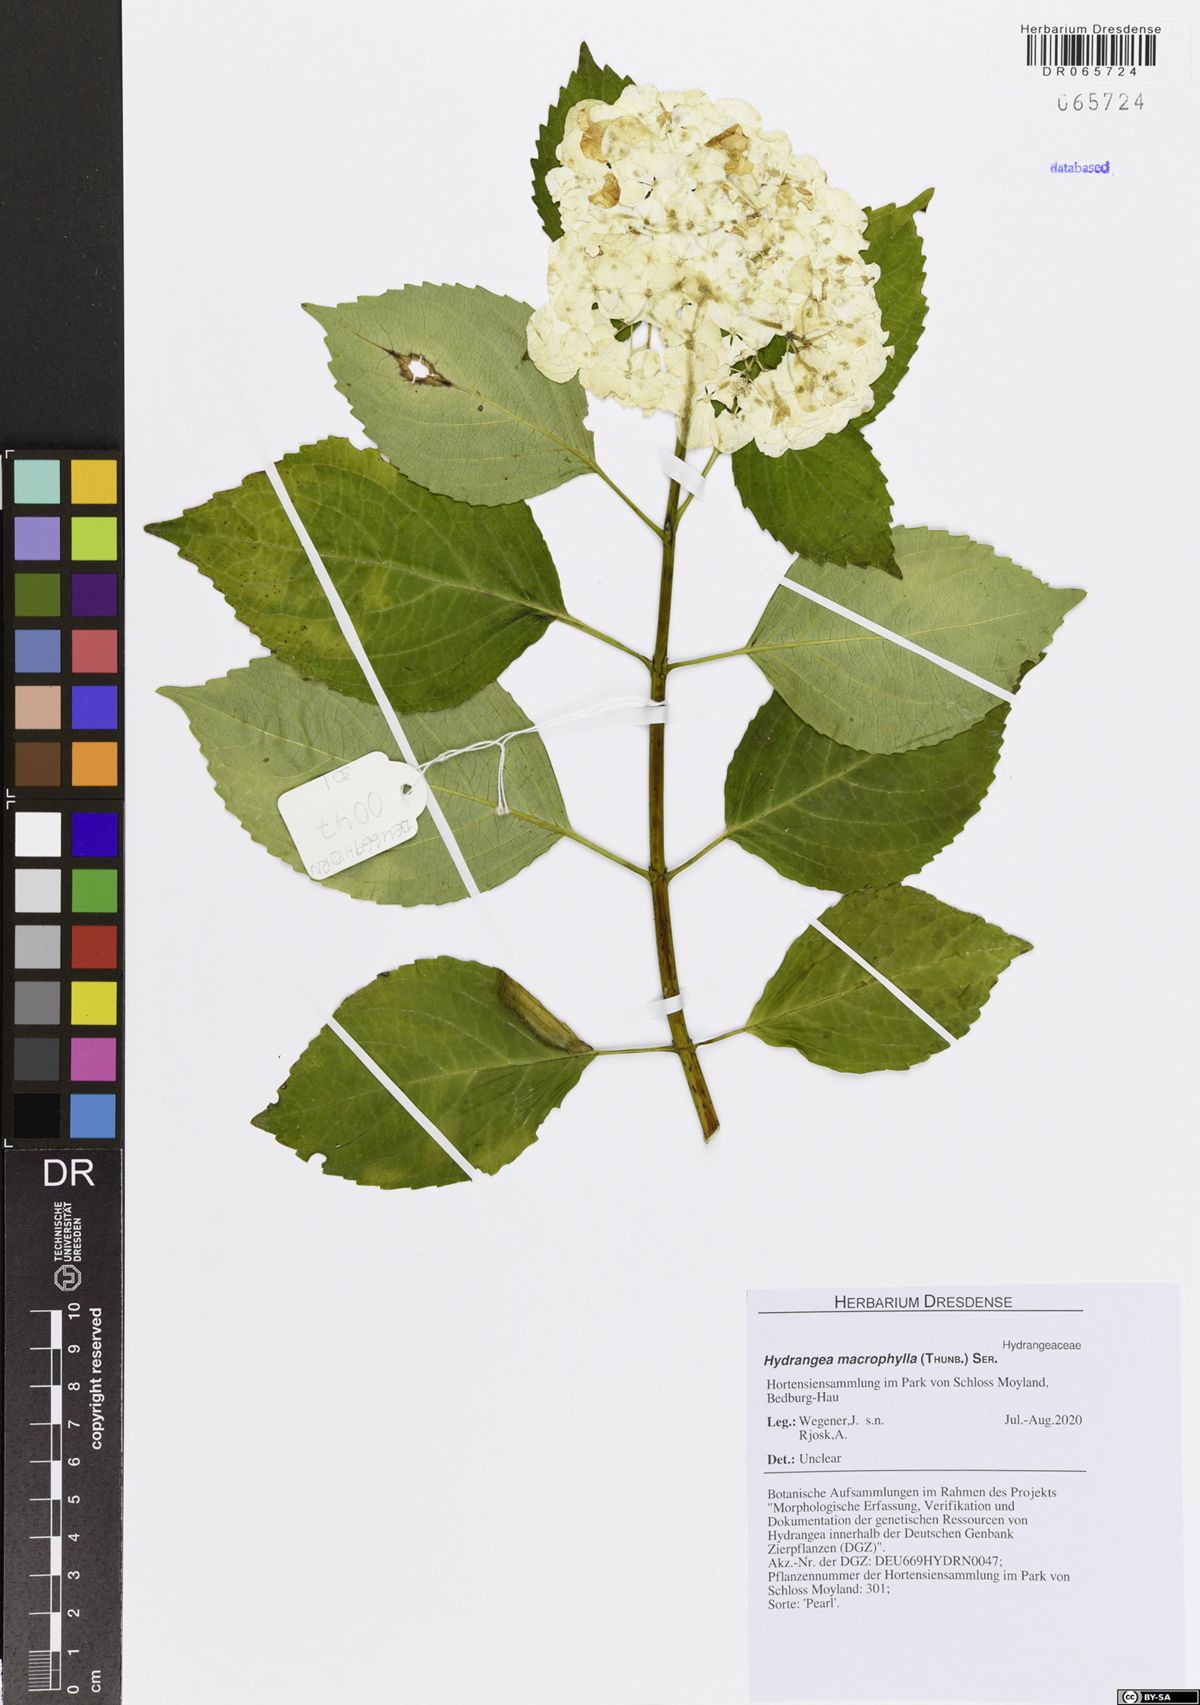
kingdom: Plantae
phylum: Tracheophyta
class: Magnoliopsida
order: Cornales
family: Hydrangeaceae
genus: Hydrangea
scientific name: Hydrangea macrophylla
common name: Hydrangea
